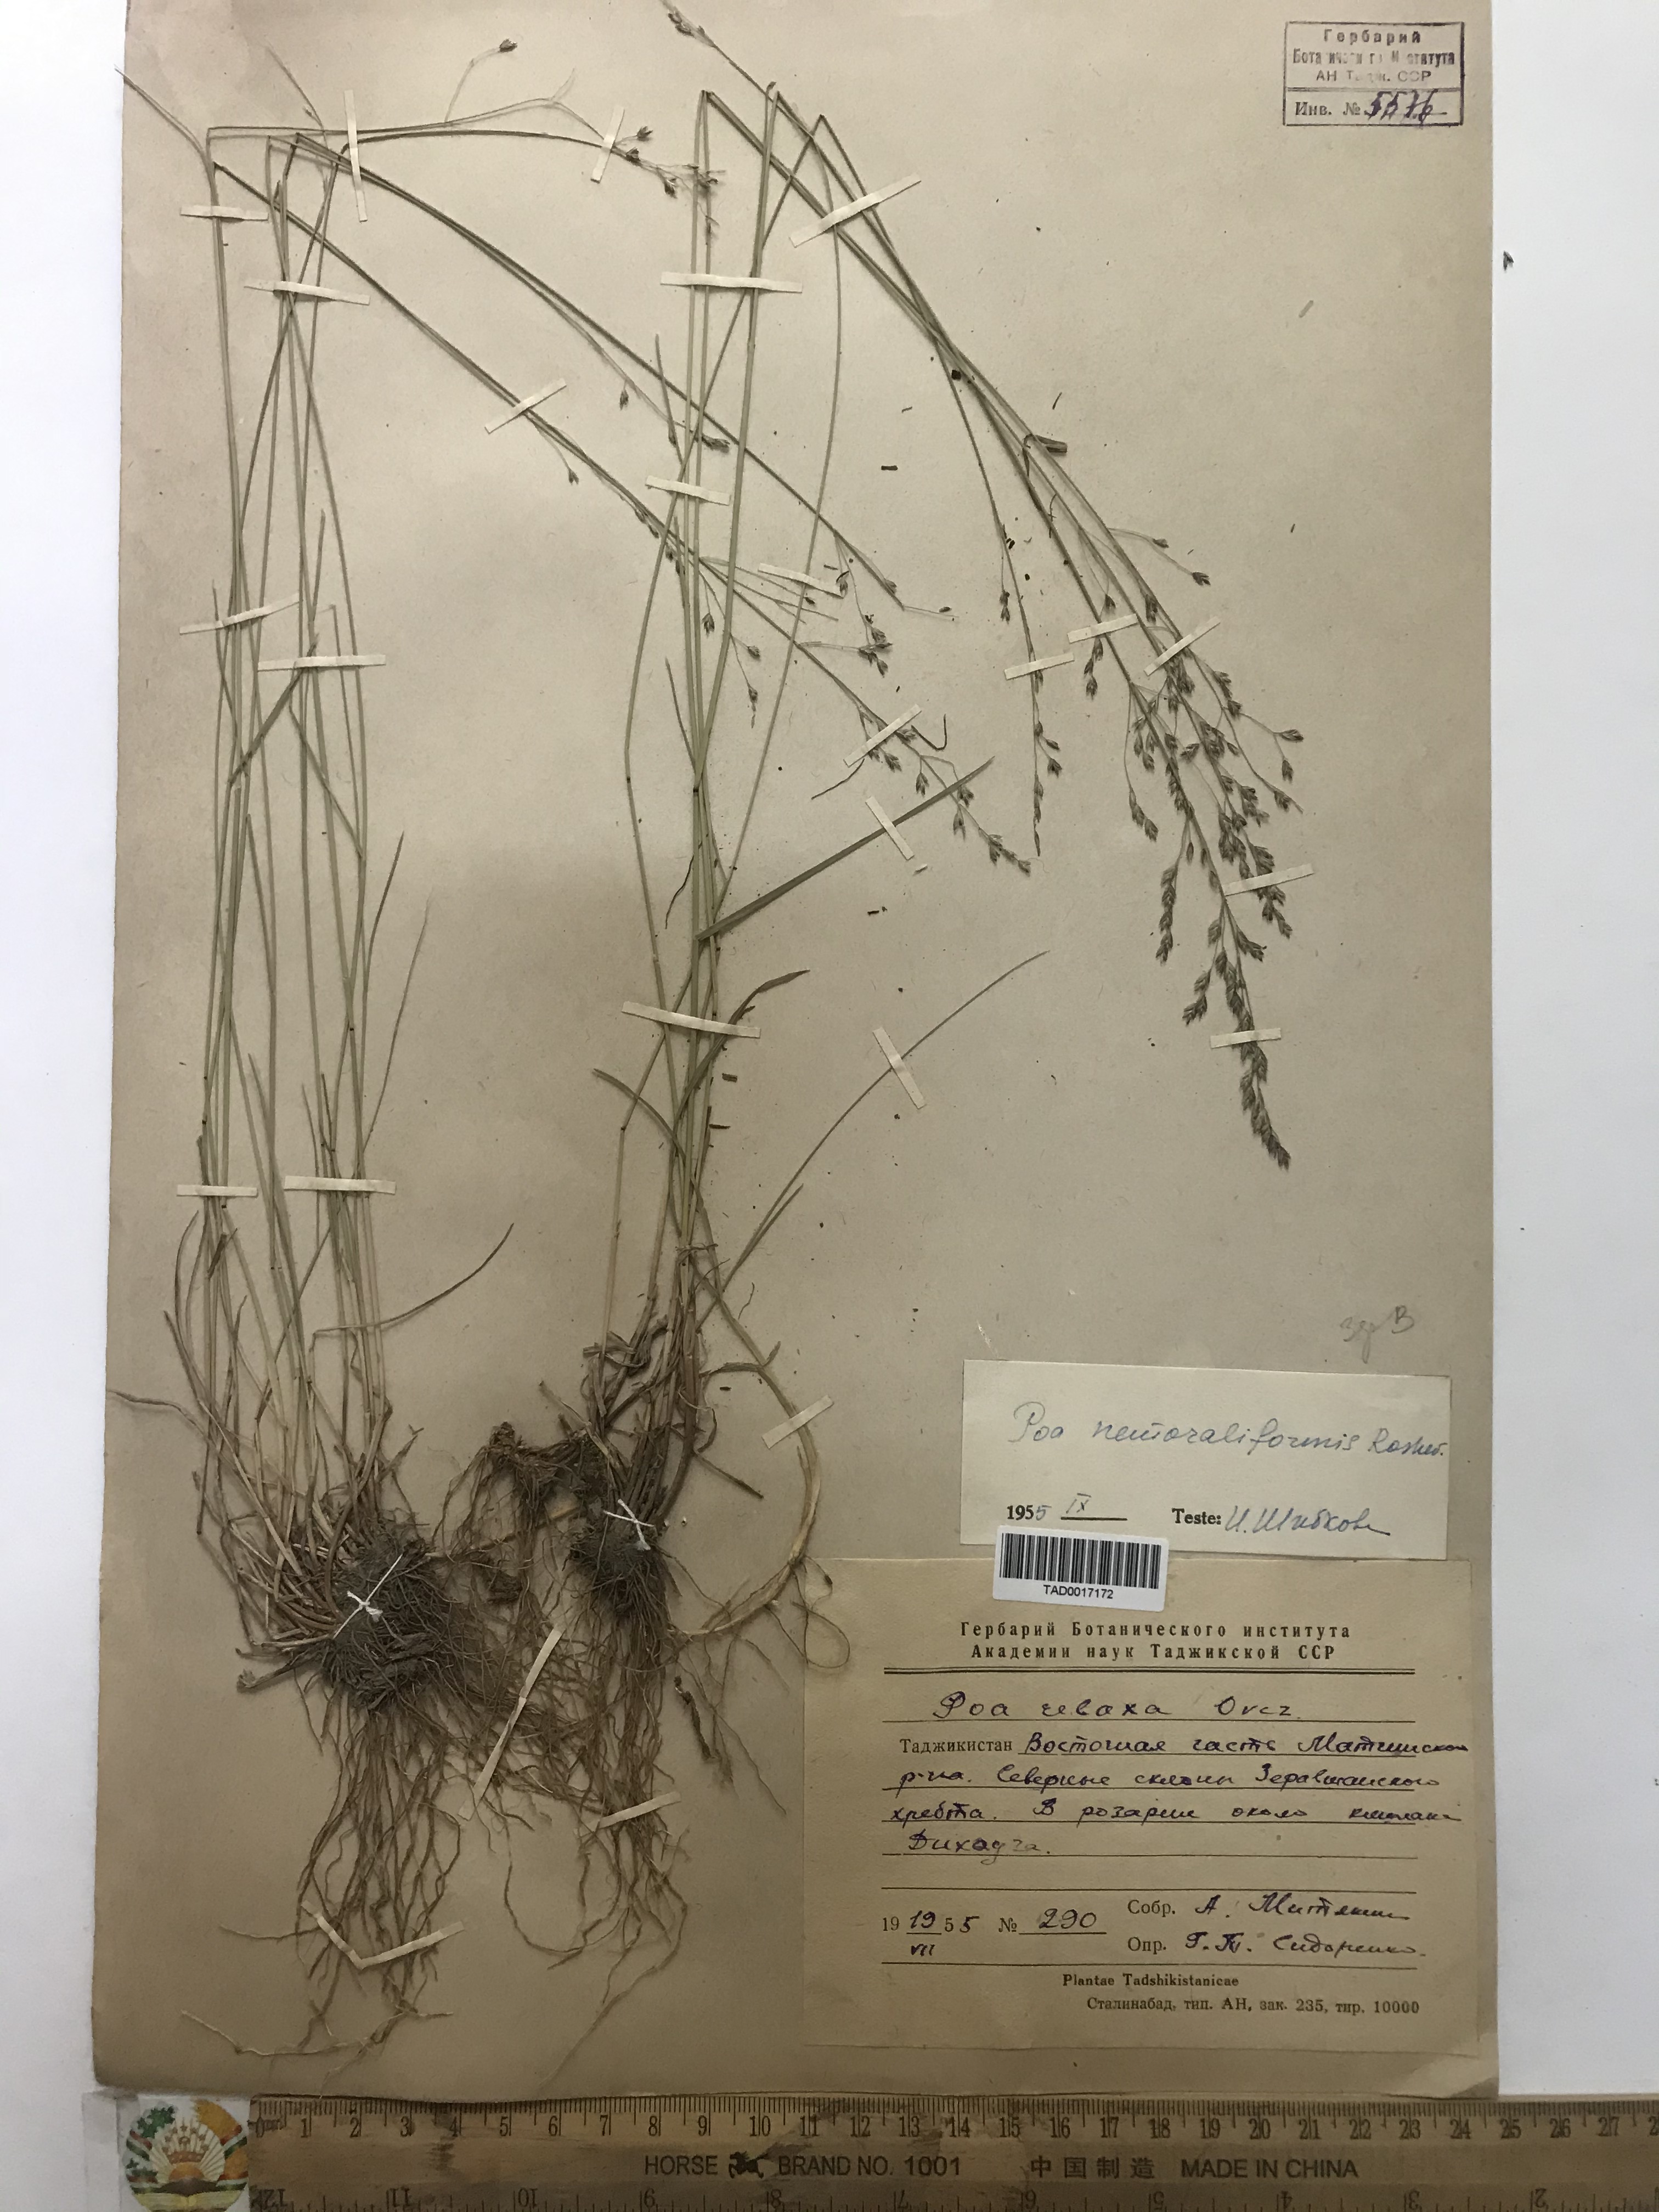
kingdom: Plantae
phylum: Tracheophyta
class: Liliopsida
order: Poales
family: Poaceae
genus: Poa
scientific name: Poa urssulensis
